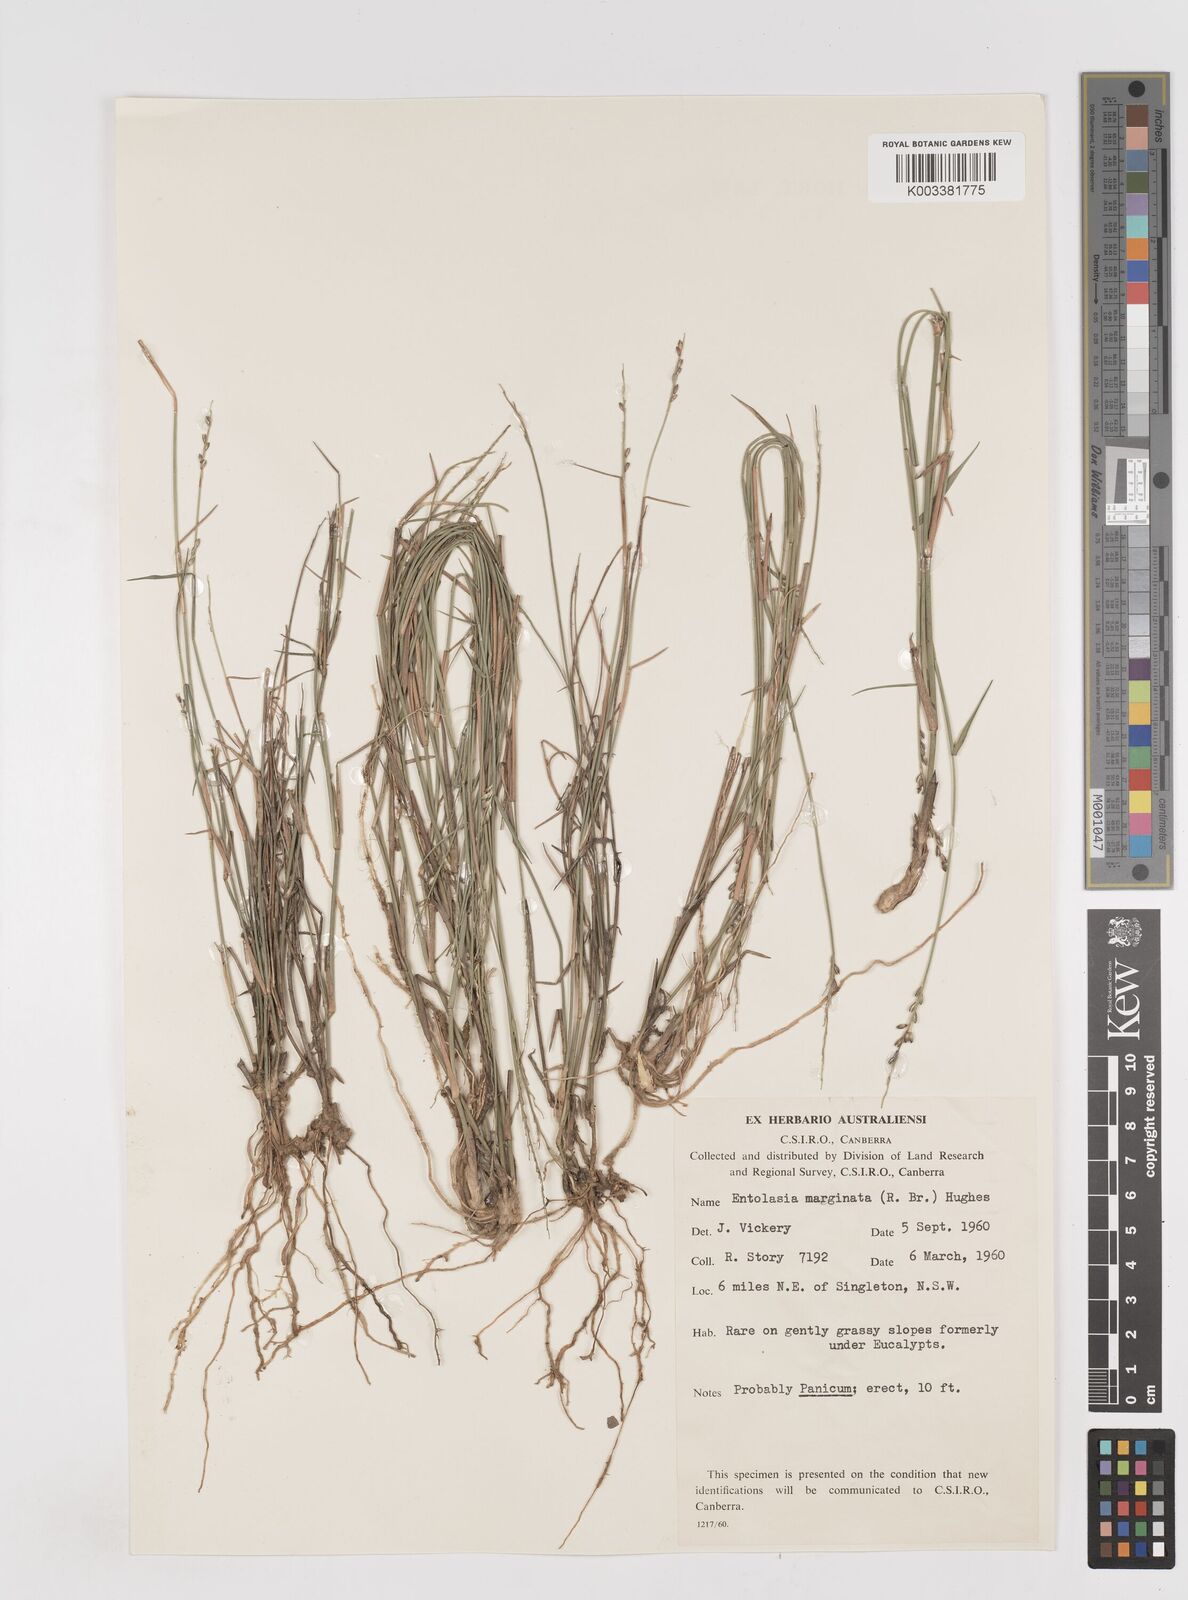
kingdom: Plantae
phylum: Tracheophyta
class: Liliopsida
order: Poales
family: Poaceae
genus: Entolasia
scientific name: Entolasia stricta
